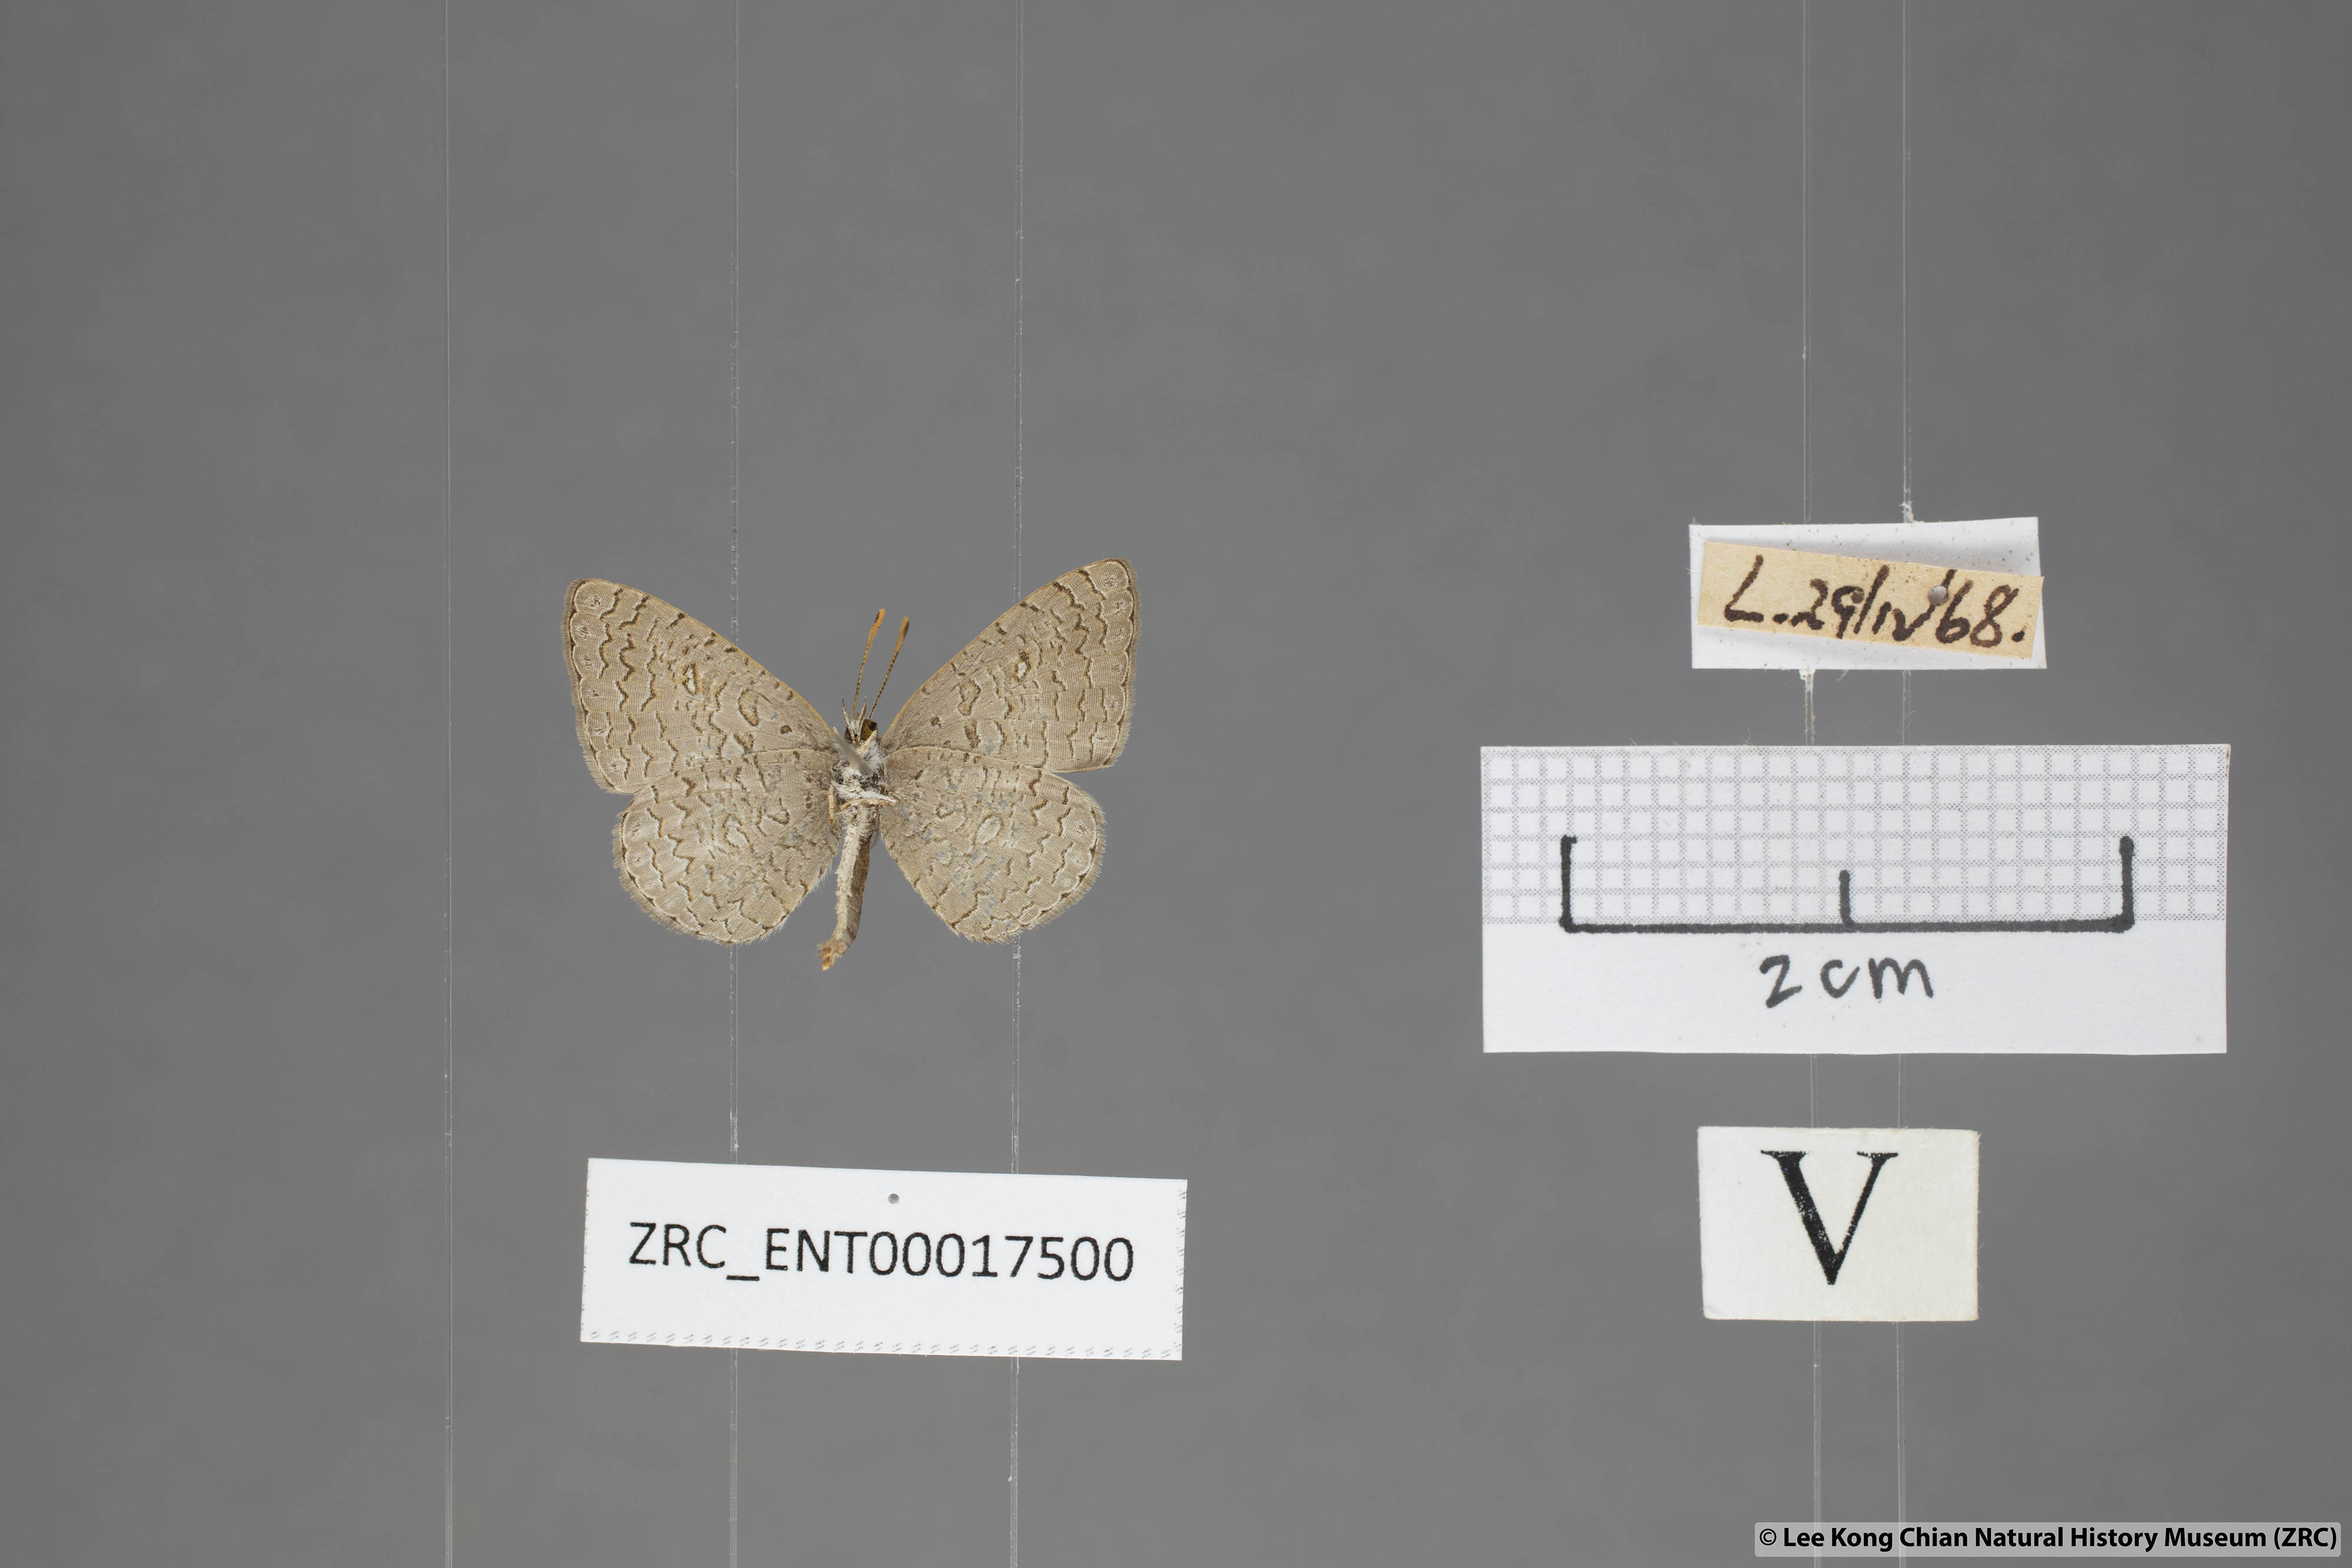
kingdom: Animalia
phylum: Arthropoda
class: Insecta
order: Lepidoptera
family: Lycaenidae
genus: Spalgis
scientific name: Spalgis epeus
